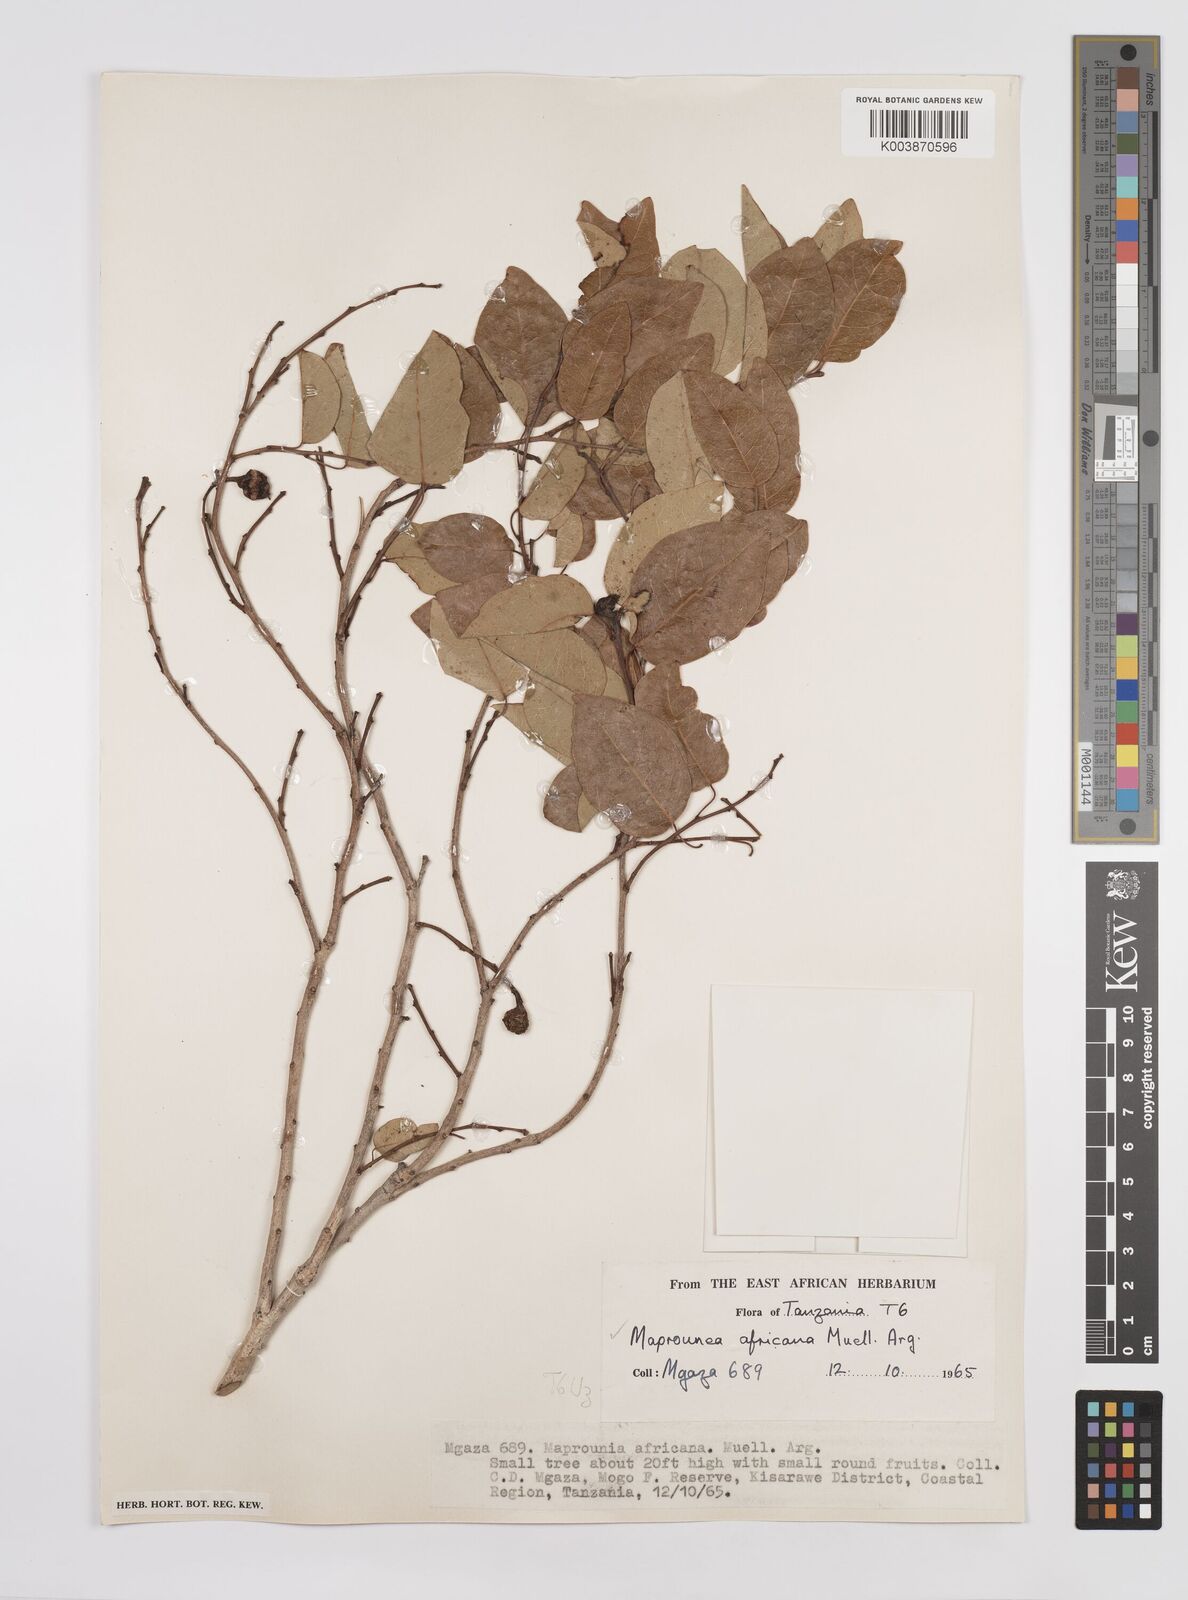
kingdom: Plantae
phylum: Tracheophyta
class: Magnoliopsida
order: Malpighiales
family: Euphorbiaceae
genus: Maprounea
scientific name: Maprounea africana
